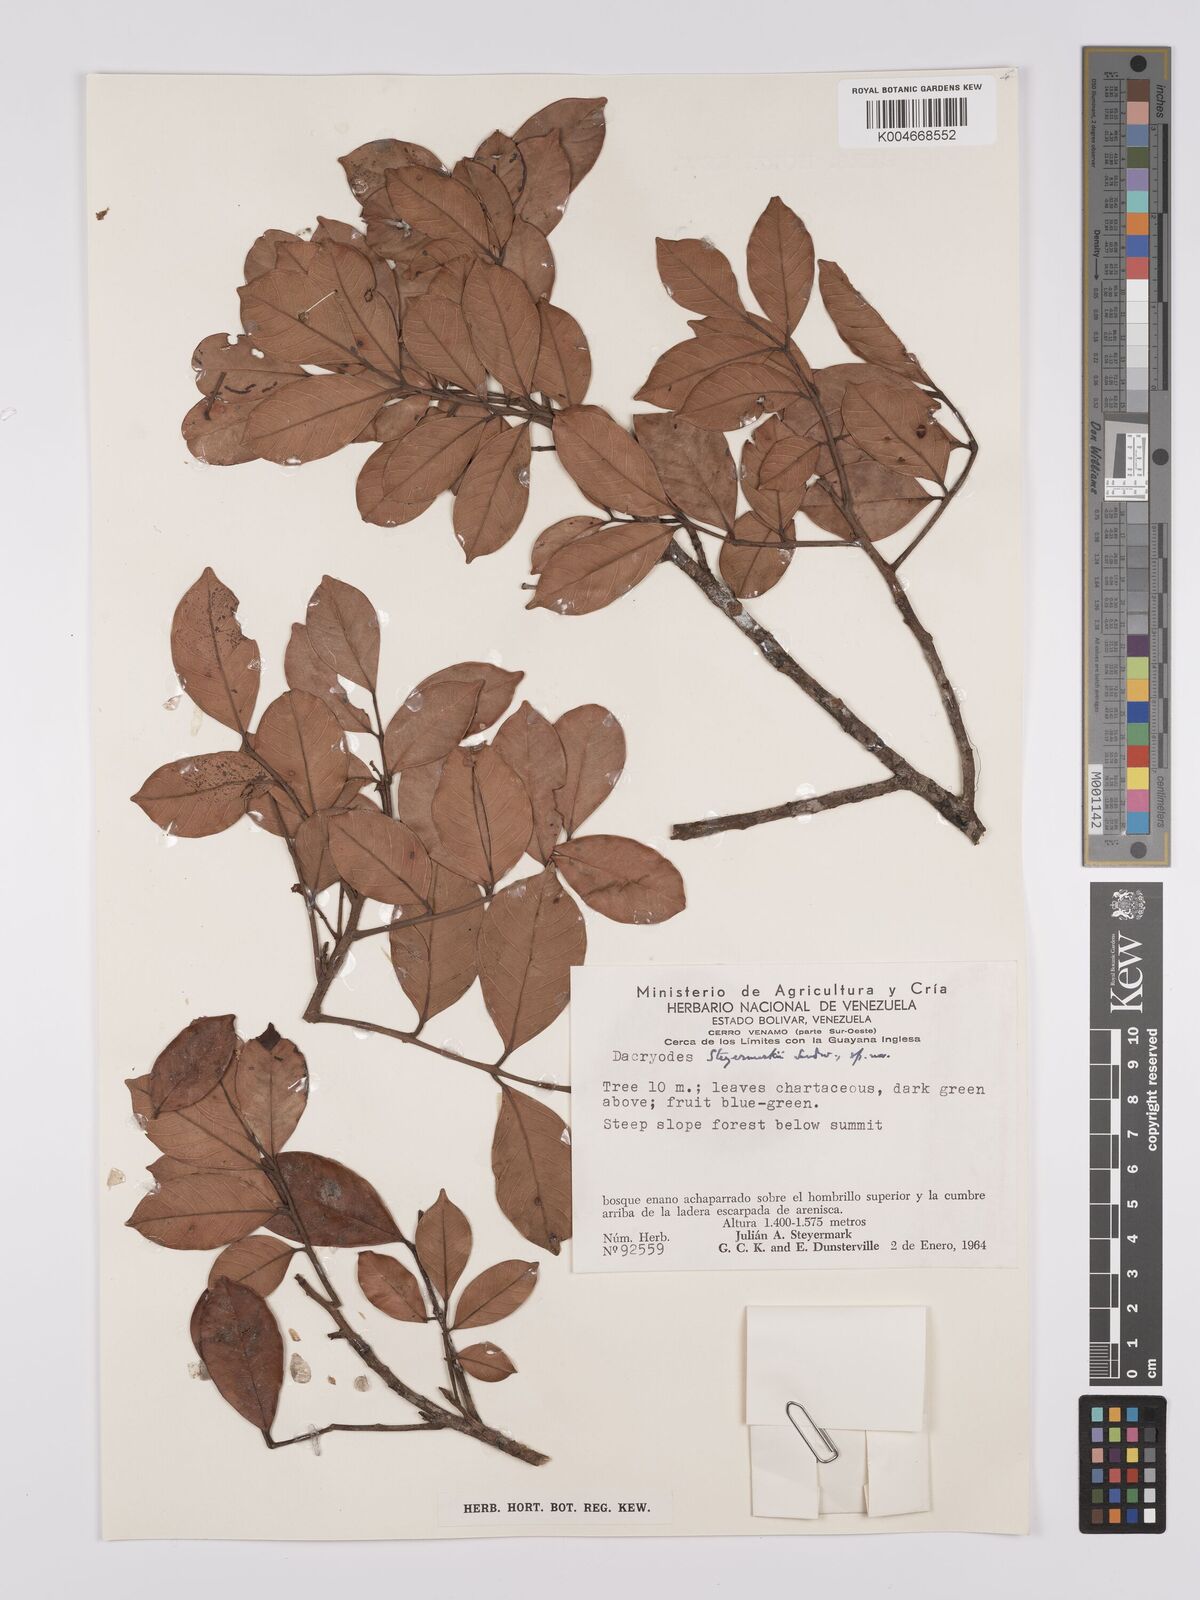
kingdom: Plantae
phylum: Tracheophyta
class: Magnoliopsida
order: Sapindales
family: Burseraceae
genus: Dacryodes
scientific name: Dacryodes steyermarkii
